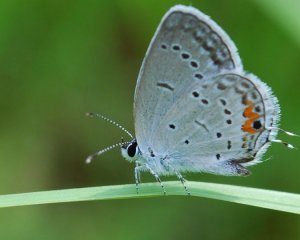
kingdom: Animalia
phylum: Arthropoda
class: Insecta
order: Lepidoptera
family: Lycaenidae
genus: Elkalyce
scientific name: Elkalyce comyntas
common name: Eastern Tailed-Blue
